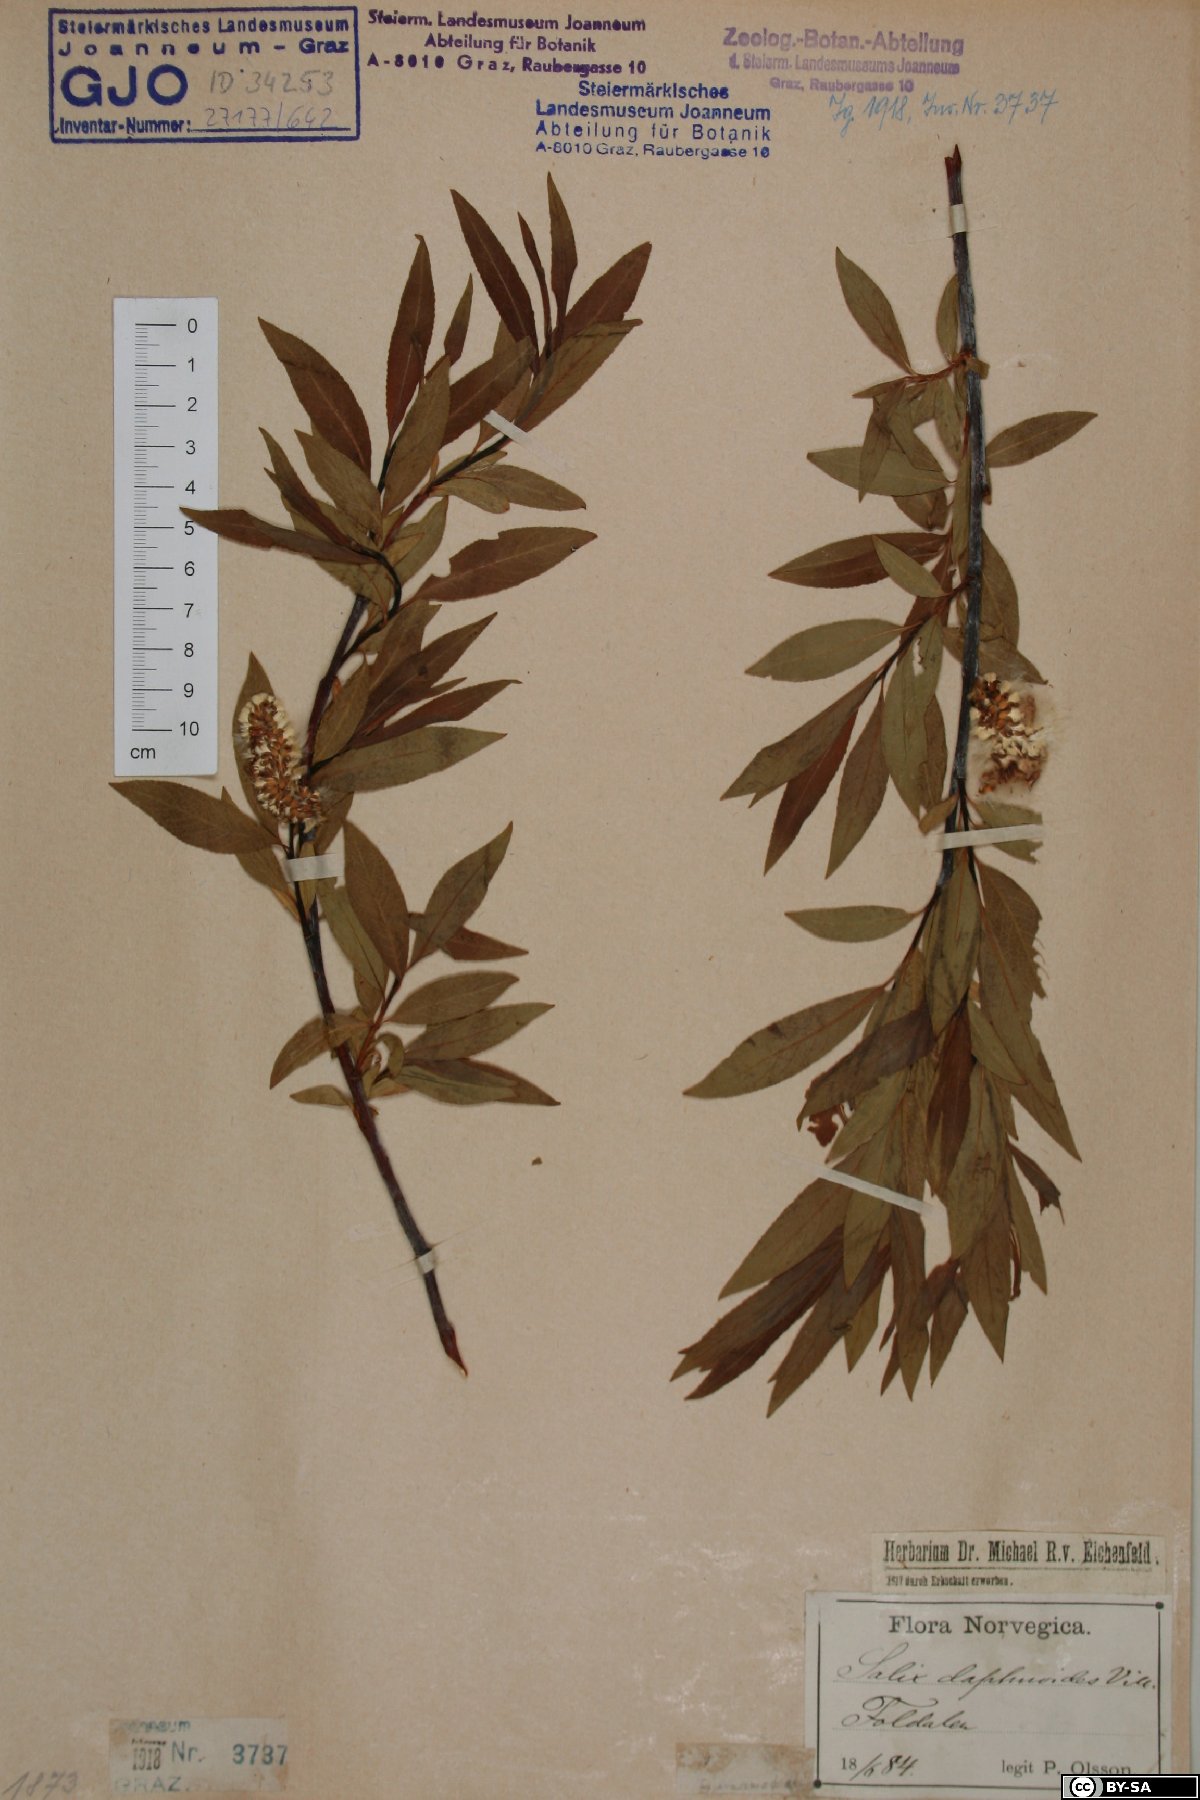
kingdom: Plantae
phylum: Tracheophyta
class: Magnoliopsida
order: Malpighiales
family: Salicaceae
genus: Salix
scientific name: Salix daphnoides
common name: European violet-willow
